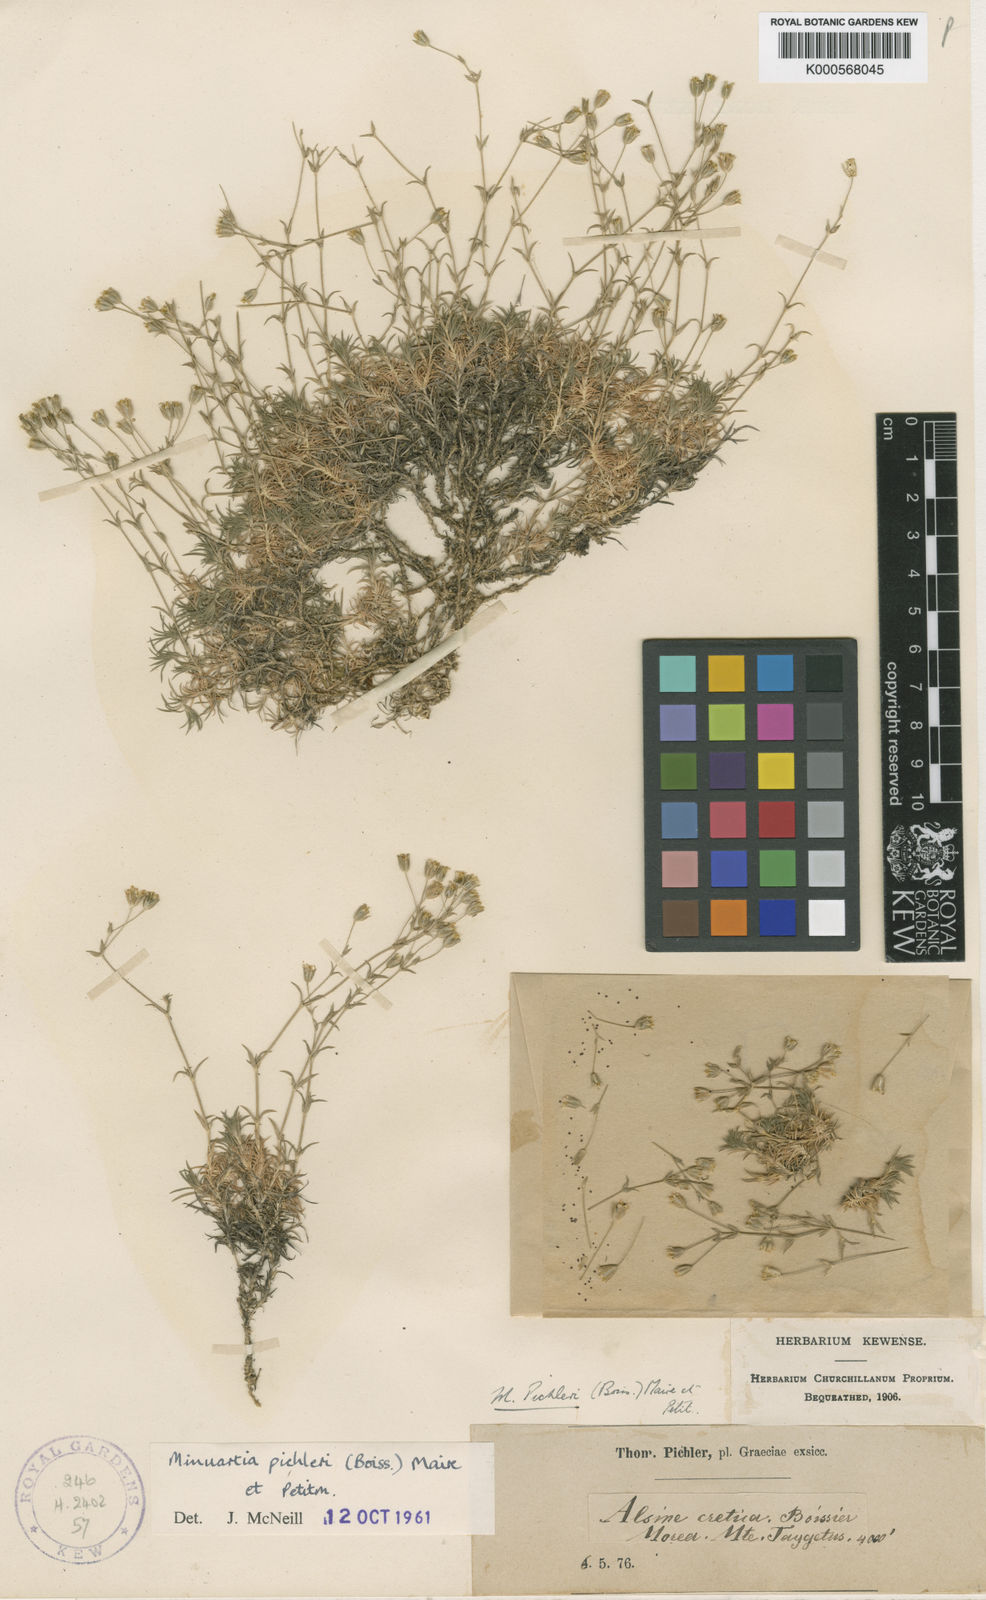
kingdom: Plantae
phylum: Tracheophyta
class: Magnoliopsida
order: Caryophyllales
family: Caryophyllaceae
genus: Sabulina
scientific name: Sabulina pichleri
